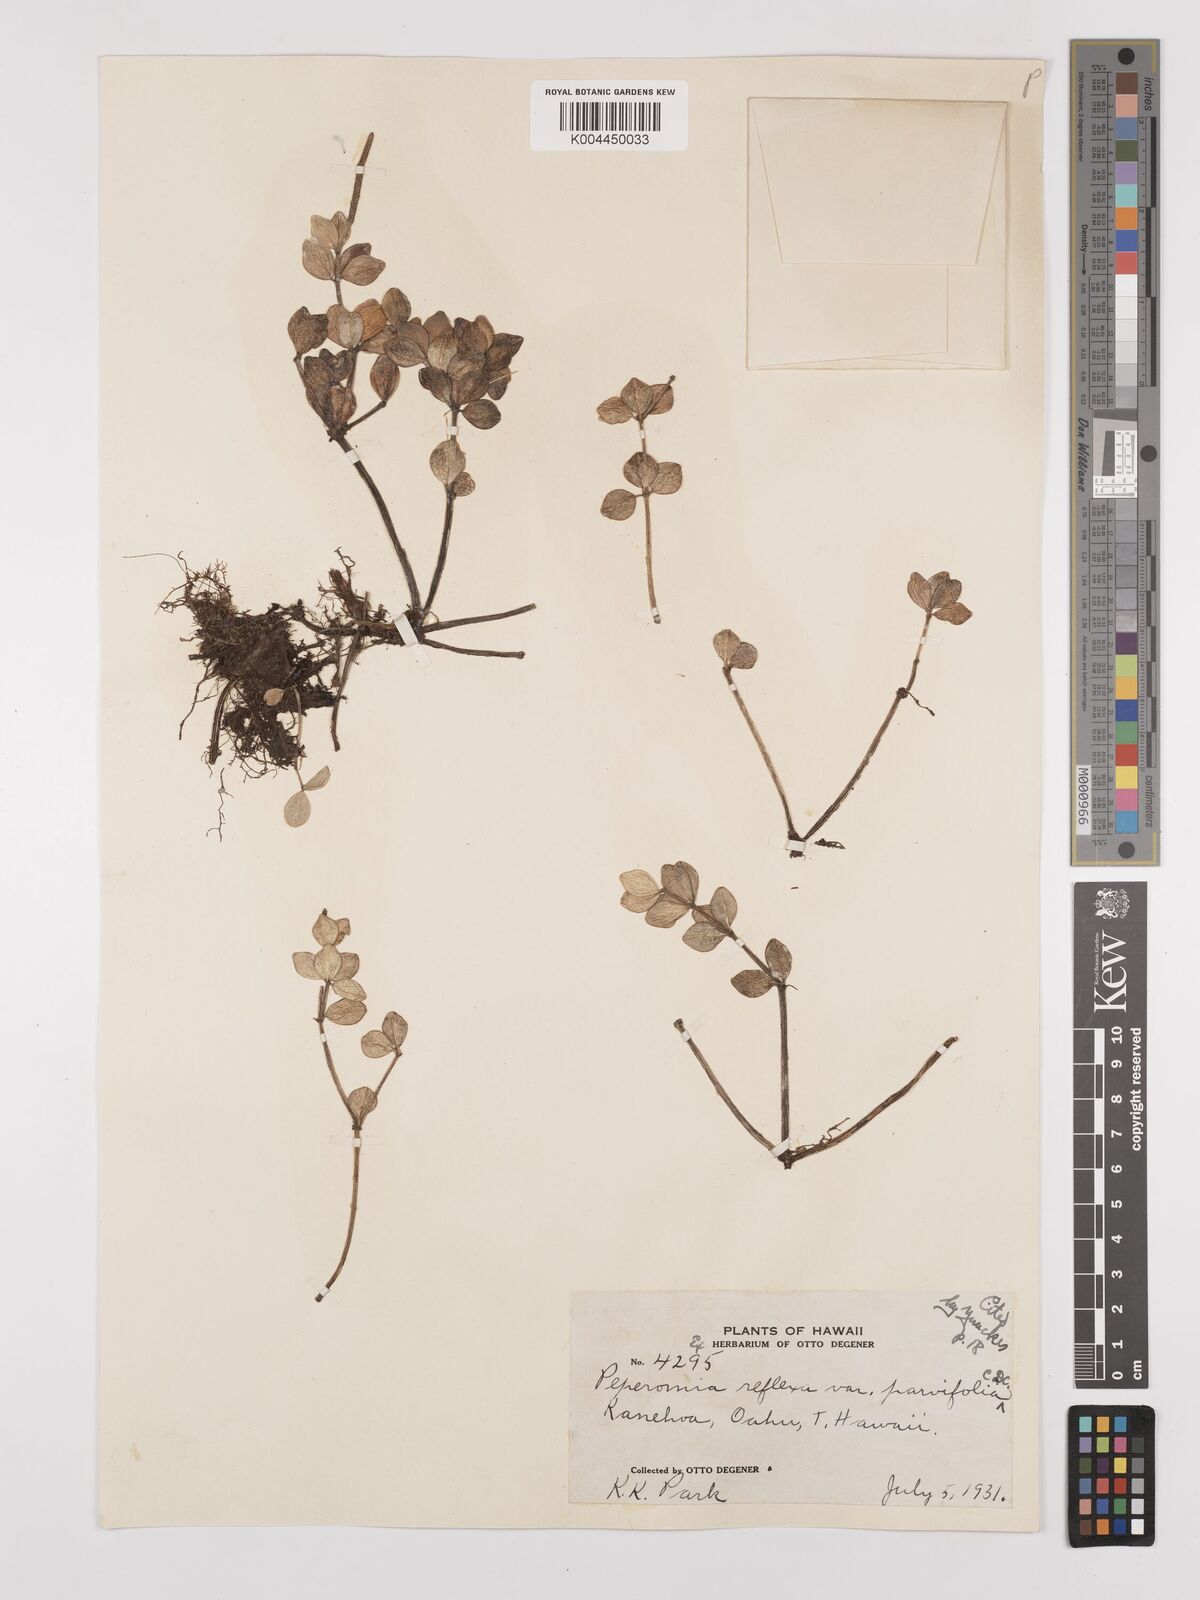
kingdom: Plantae
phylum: Tracheophyta
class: Magnoliopsida
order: Piperales
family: Piperaceae
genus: Peperomia
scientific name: Peperomia tetraphylla
